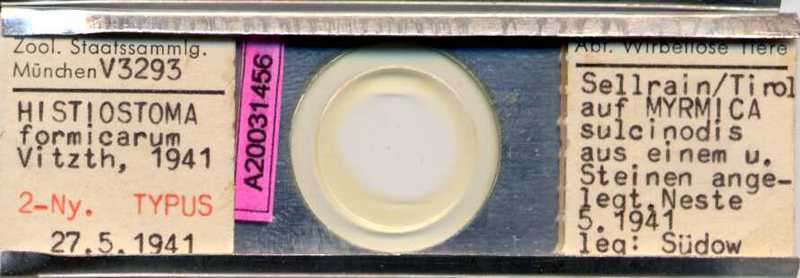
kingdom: Animalia
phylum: Arthropoda
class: Arachnida
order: Sarcoptiformes
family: Histiostomatidae
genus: Histiostoma
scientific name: Histiostoma formicarum
